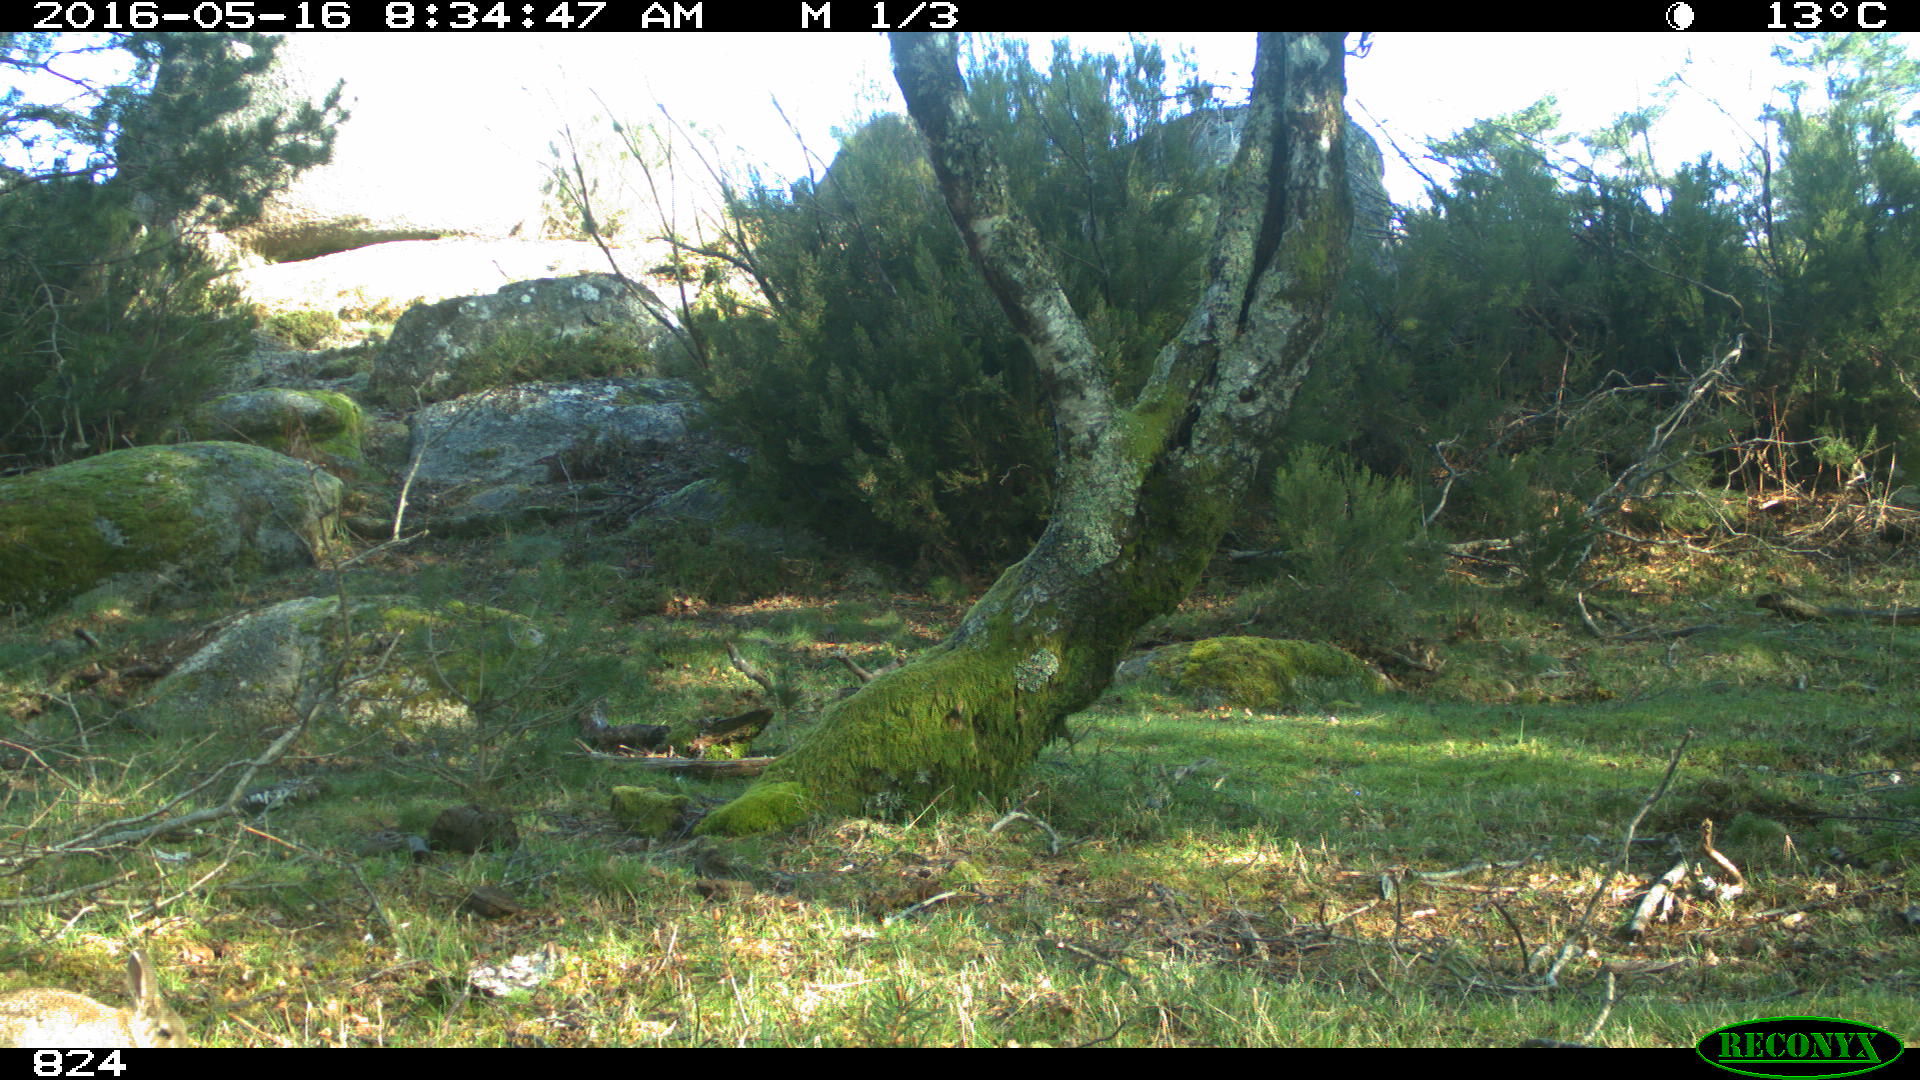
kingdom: Animalia
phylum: Chordata
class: Mammalia
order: Lagomorpha
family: Leporidae
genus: Oryctolagus
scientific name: Oryctolagus cuniculus
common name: European rabbit
